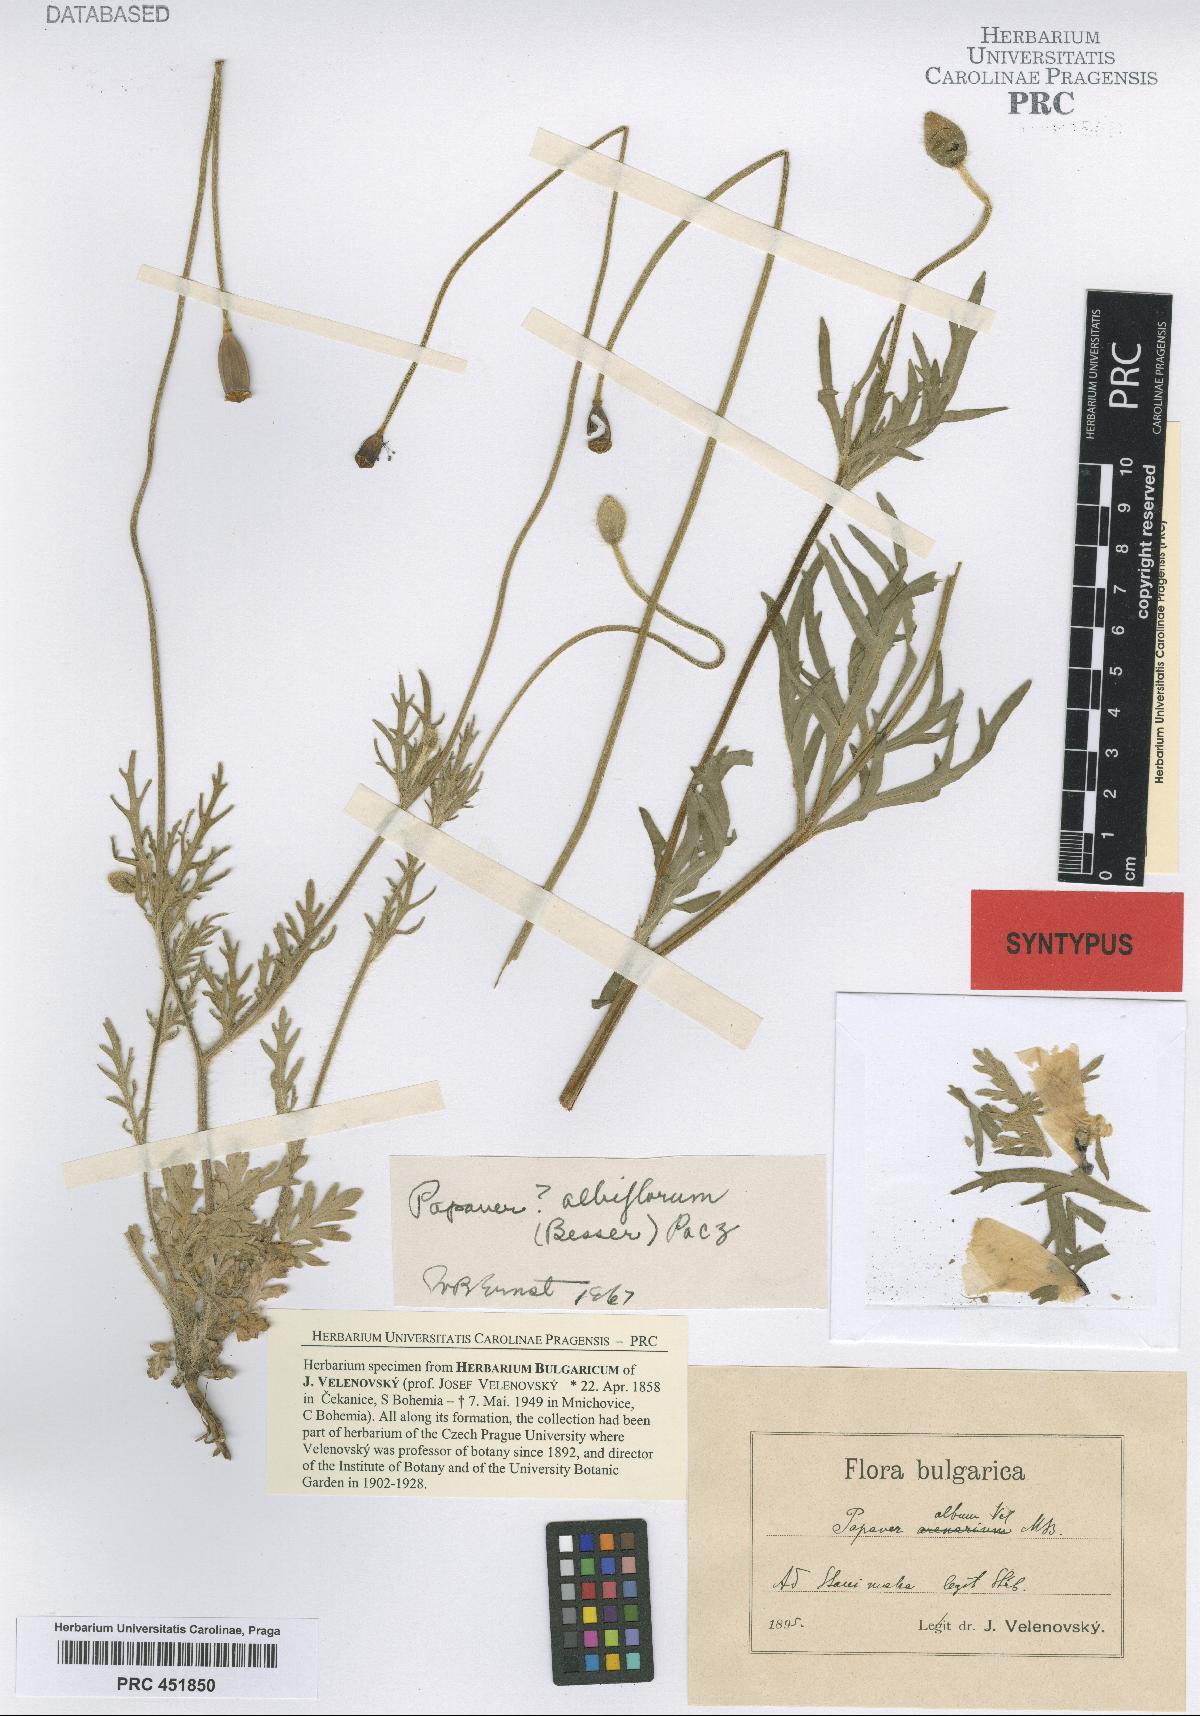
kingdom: Plantae
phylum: Tracheophyta
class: Magnoliopsida
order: Ranunculales
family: Papaveraceae
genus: Papaver
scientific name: Papaver dubium
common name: Long-headed poppy
